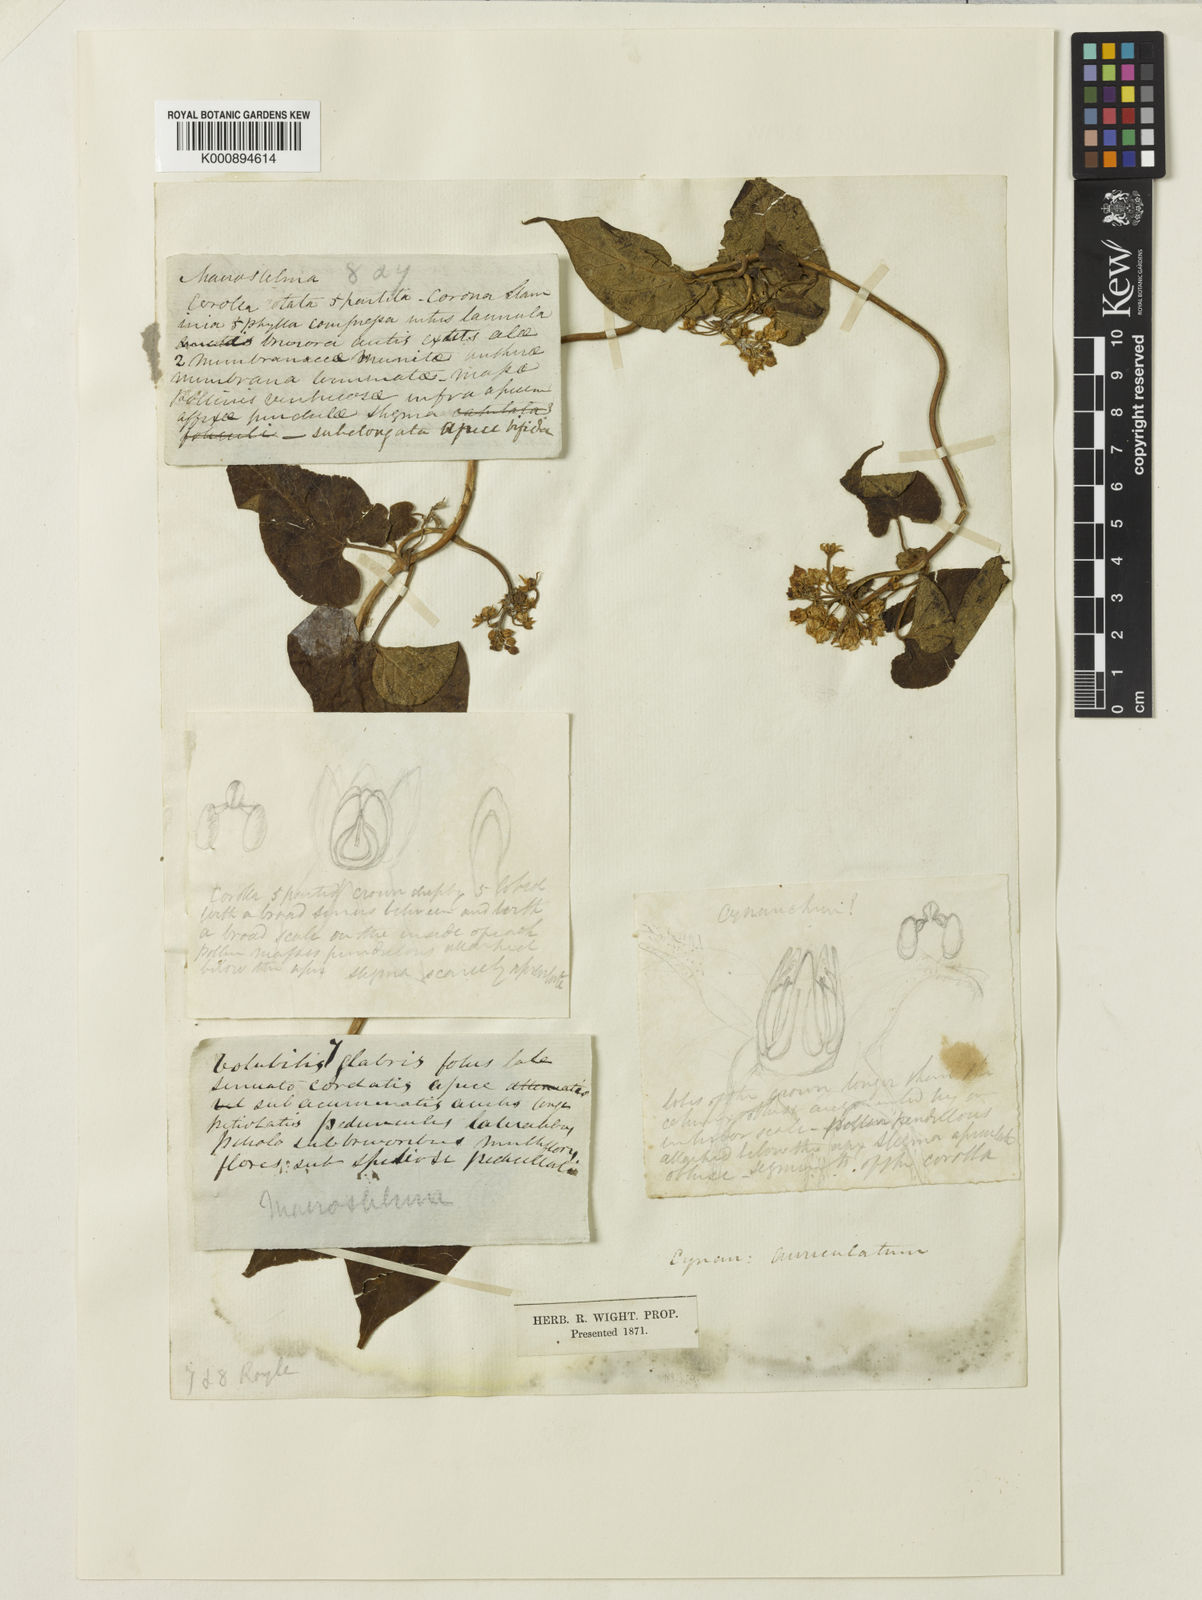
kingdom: Plantae
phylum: Tracheophyta
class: Magnoliopsida
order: Gentianales
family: Apocynaceae
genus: Cynanchum
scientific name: Cynanchum auriculatum
